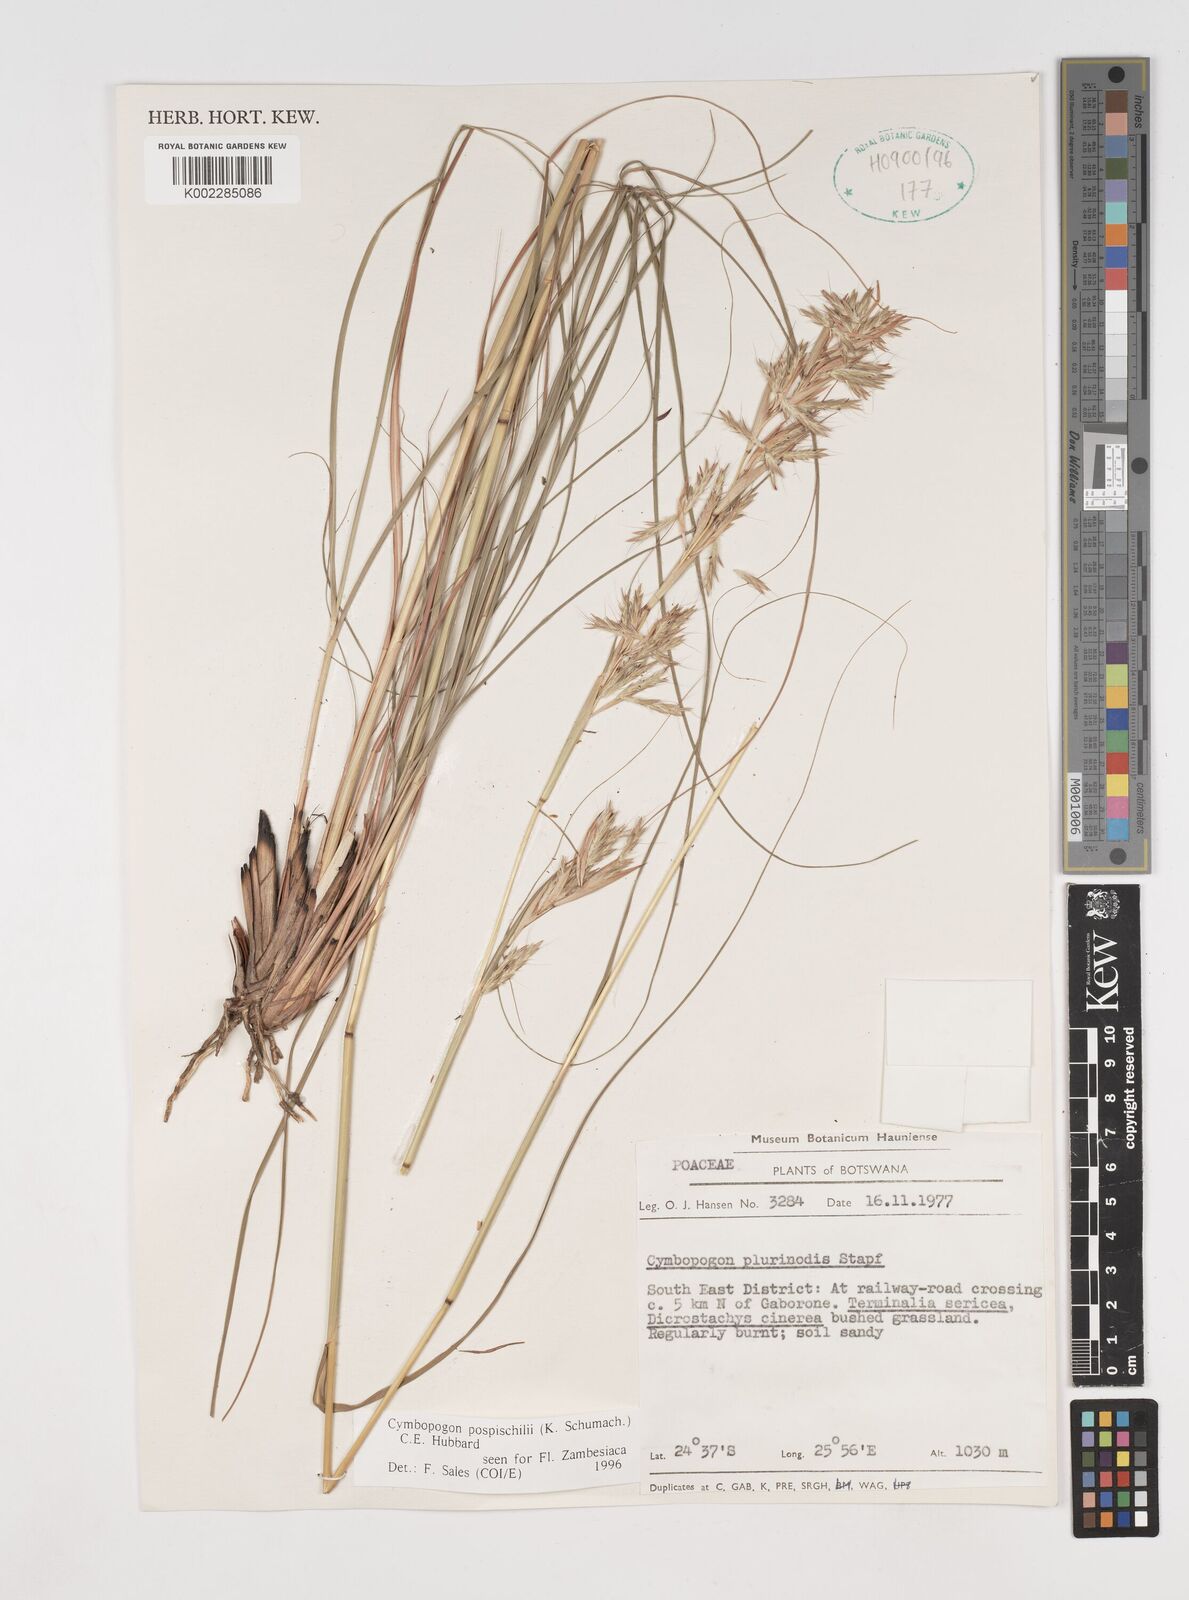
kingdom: Plantae
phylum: Tracheophyta
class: Liliopsida
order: Poales
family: Poaceae
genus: Cymbopogon
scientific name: Cymbopogon pospischilii
